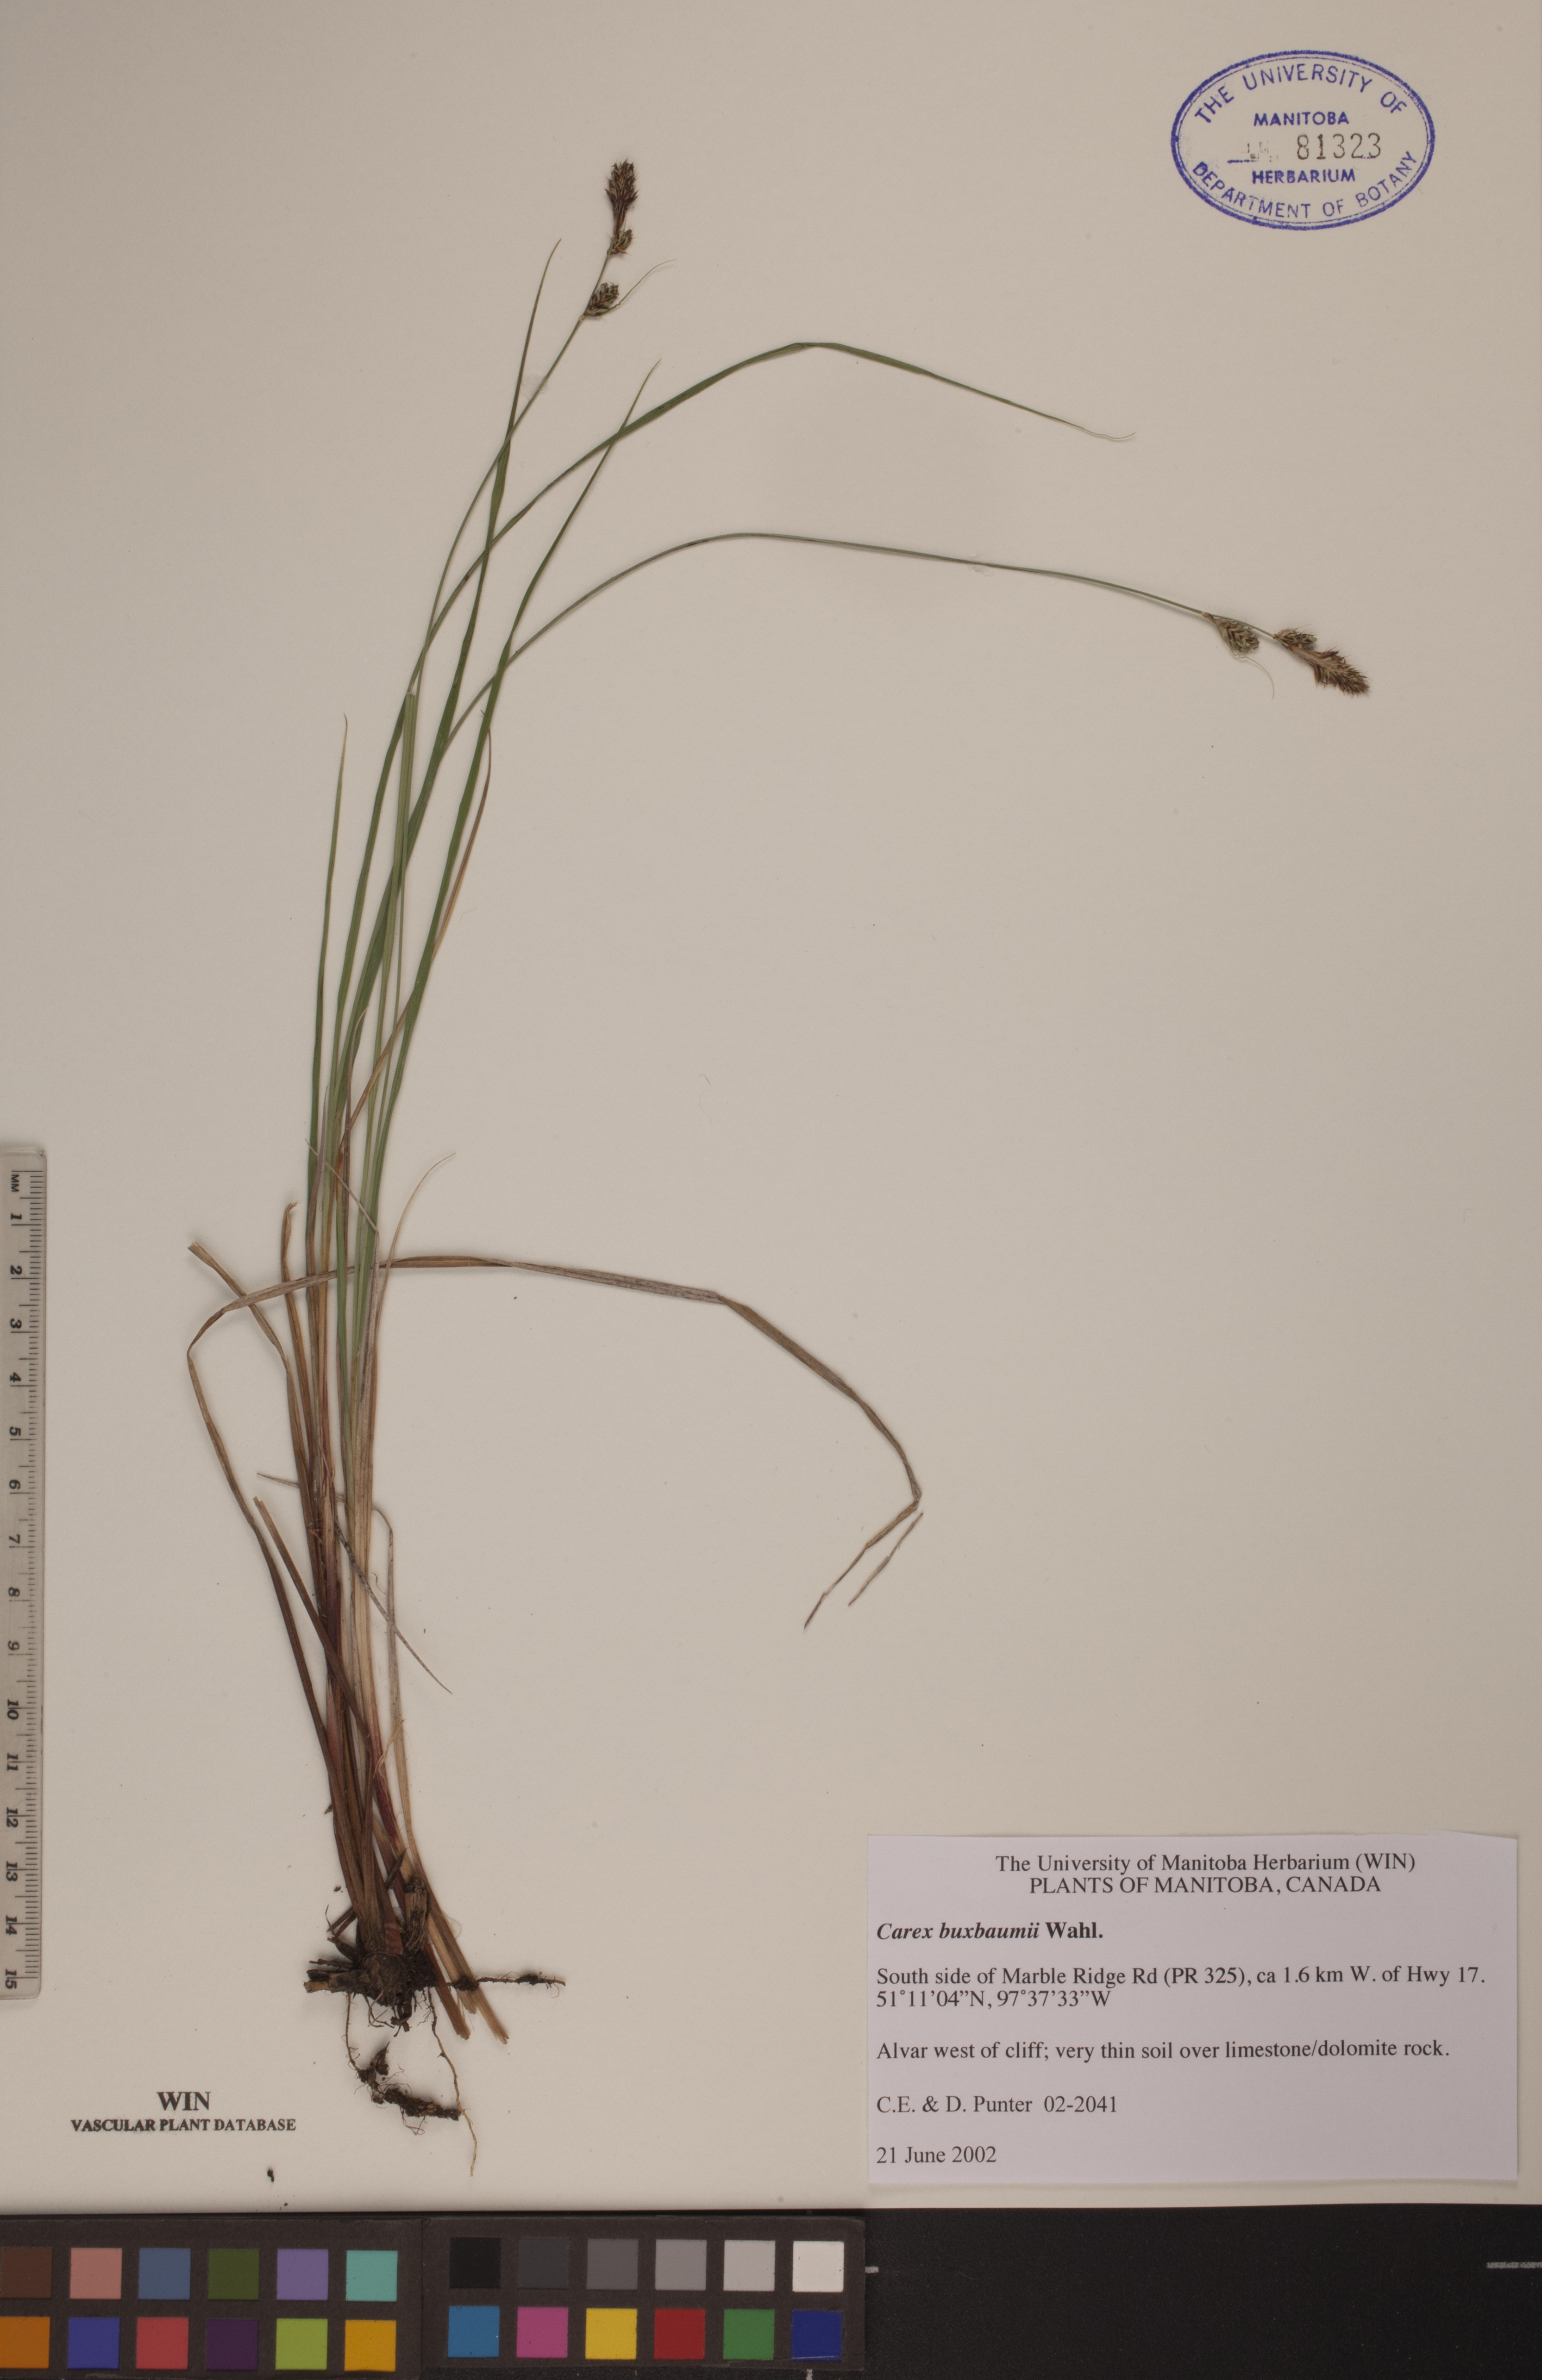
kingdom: Plantae
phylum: Tracheophyta
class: Liliopsida
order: Poales
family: Cyperaceae
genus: Carex
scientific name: Carex buxbaumii
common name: Club sedge
